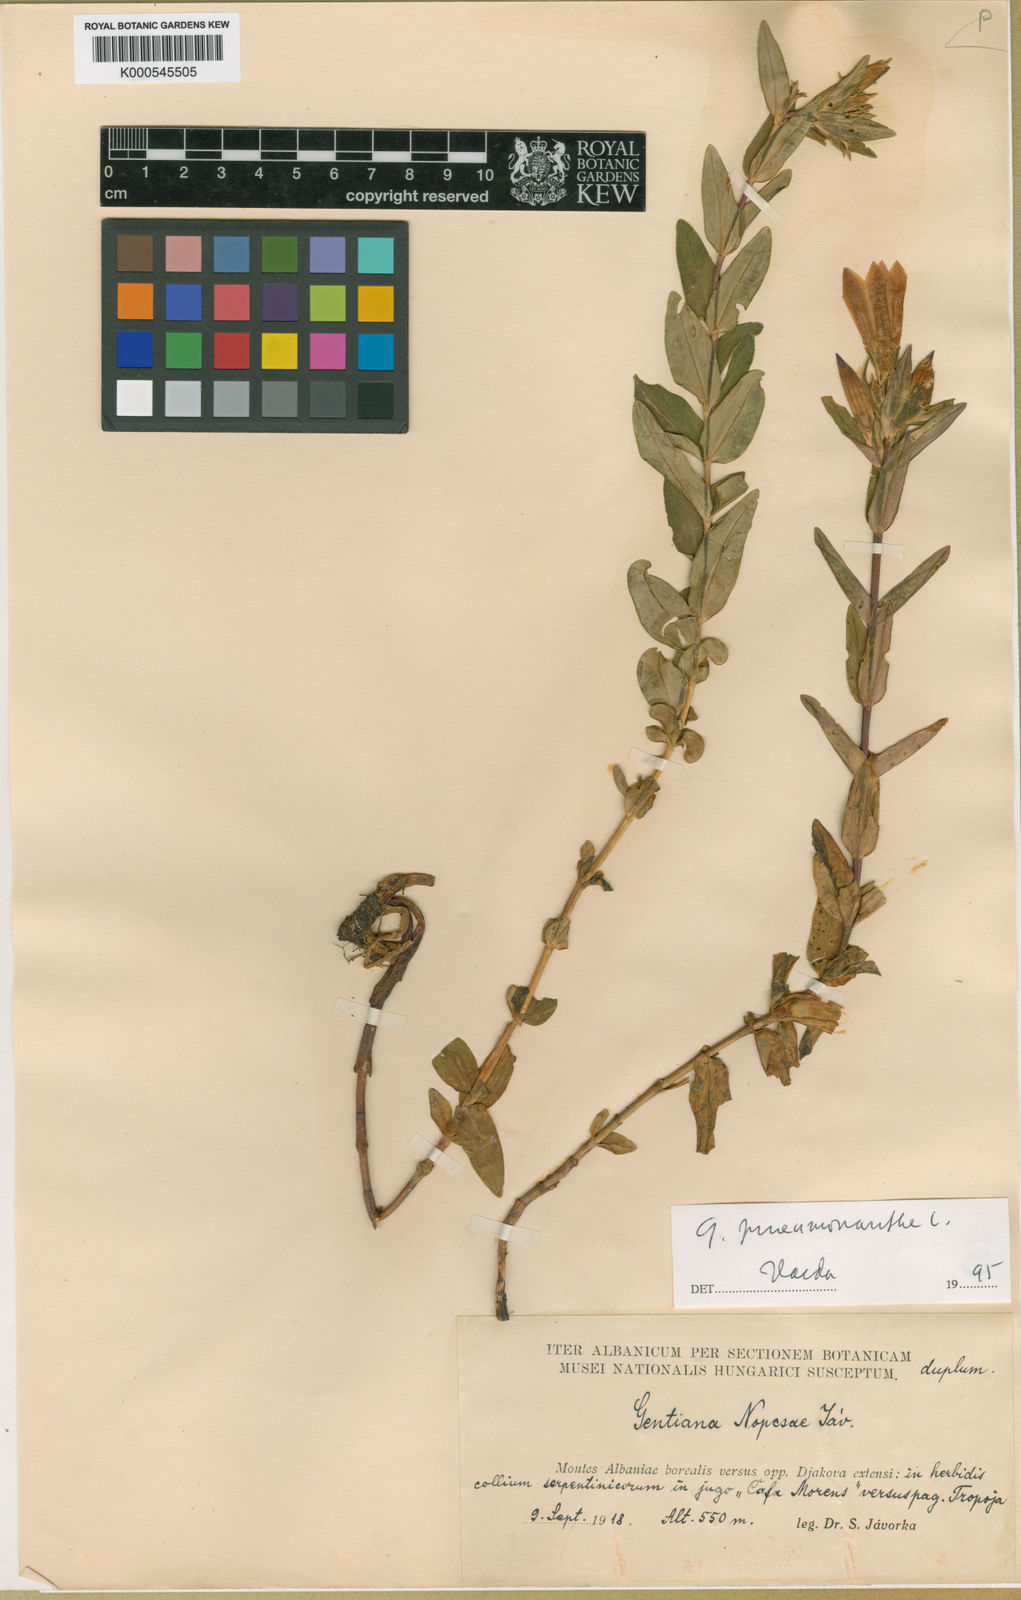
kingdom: Plantae
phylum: Tracheophyta
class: Magnoliopsida
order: Gentianales
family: Gentianaceae
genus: Gentiana
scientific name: Gentiana pneumonanthe
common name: Marsh gentian
